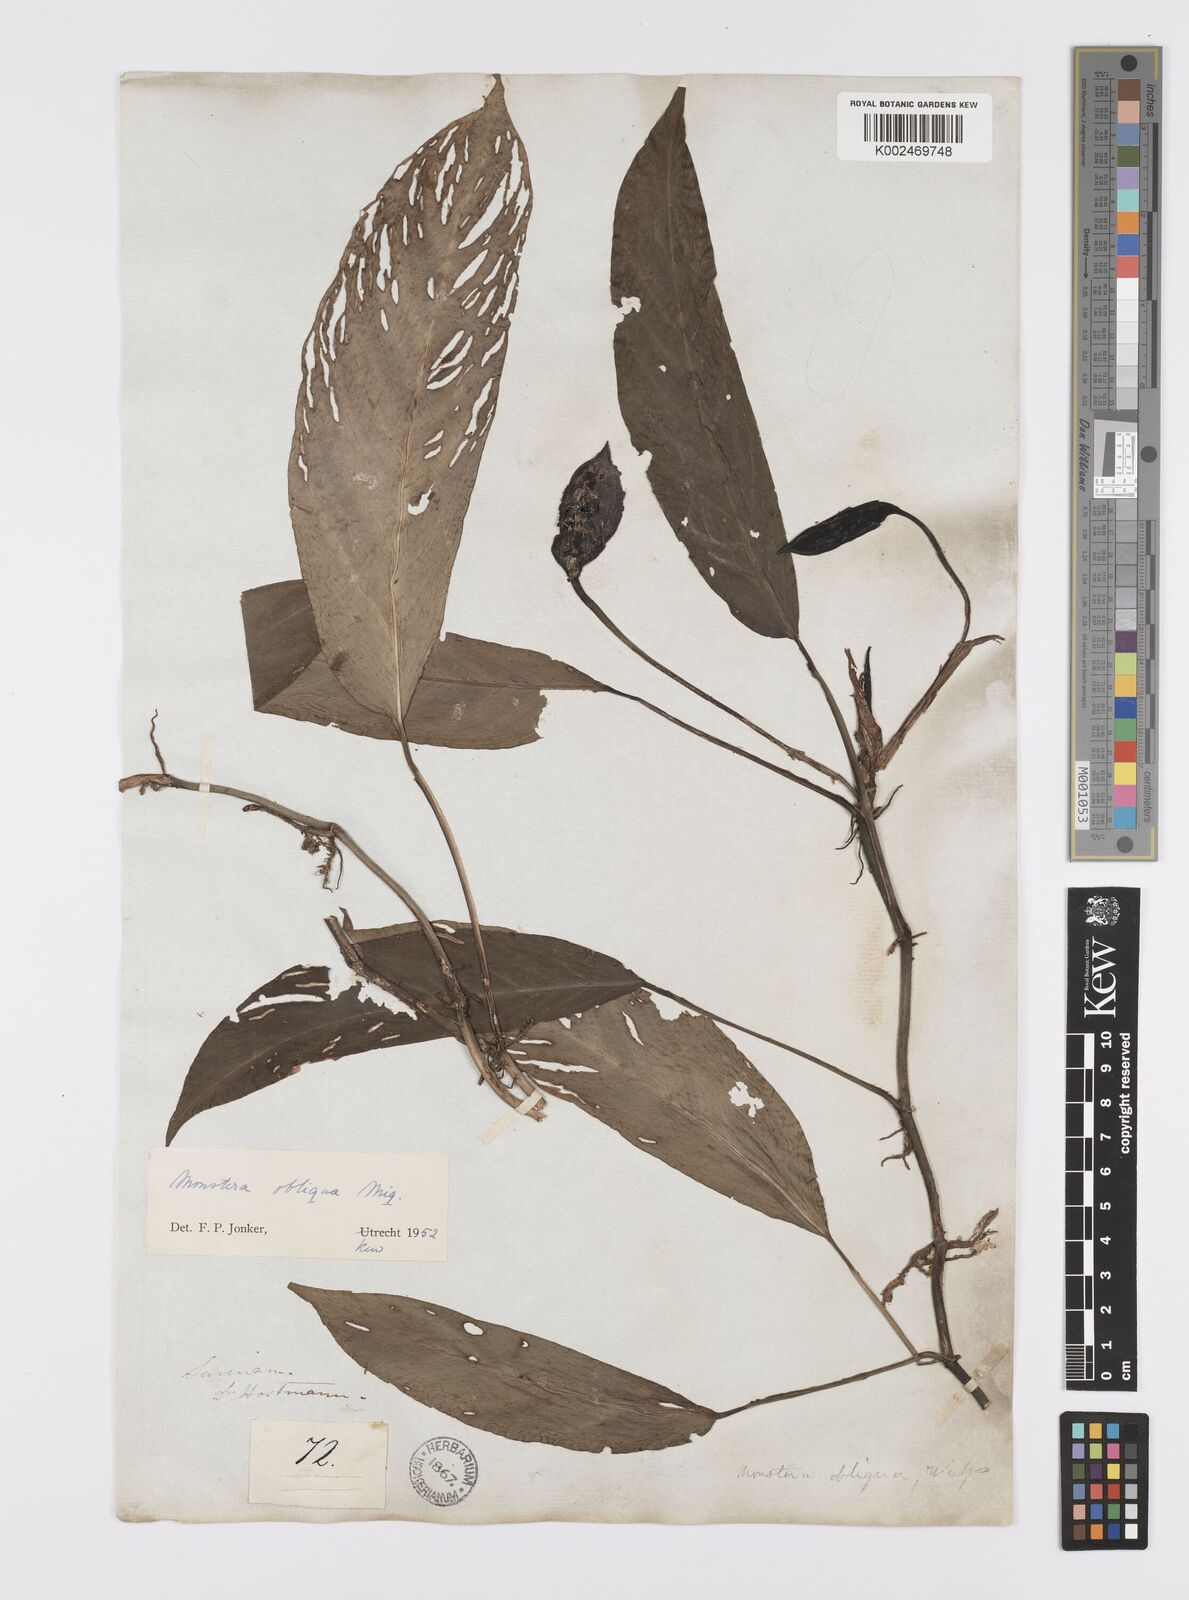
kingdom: Plantae
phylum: Tracheophyta
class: Liliopsida
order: Alismatales
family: Araceae
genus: Monstera
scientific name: Monstera obliqua
